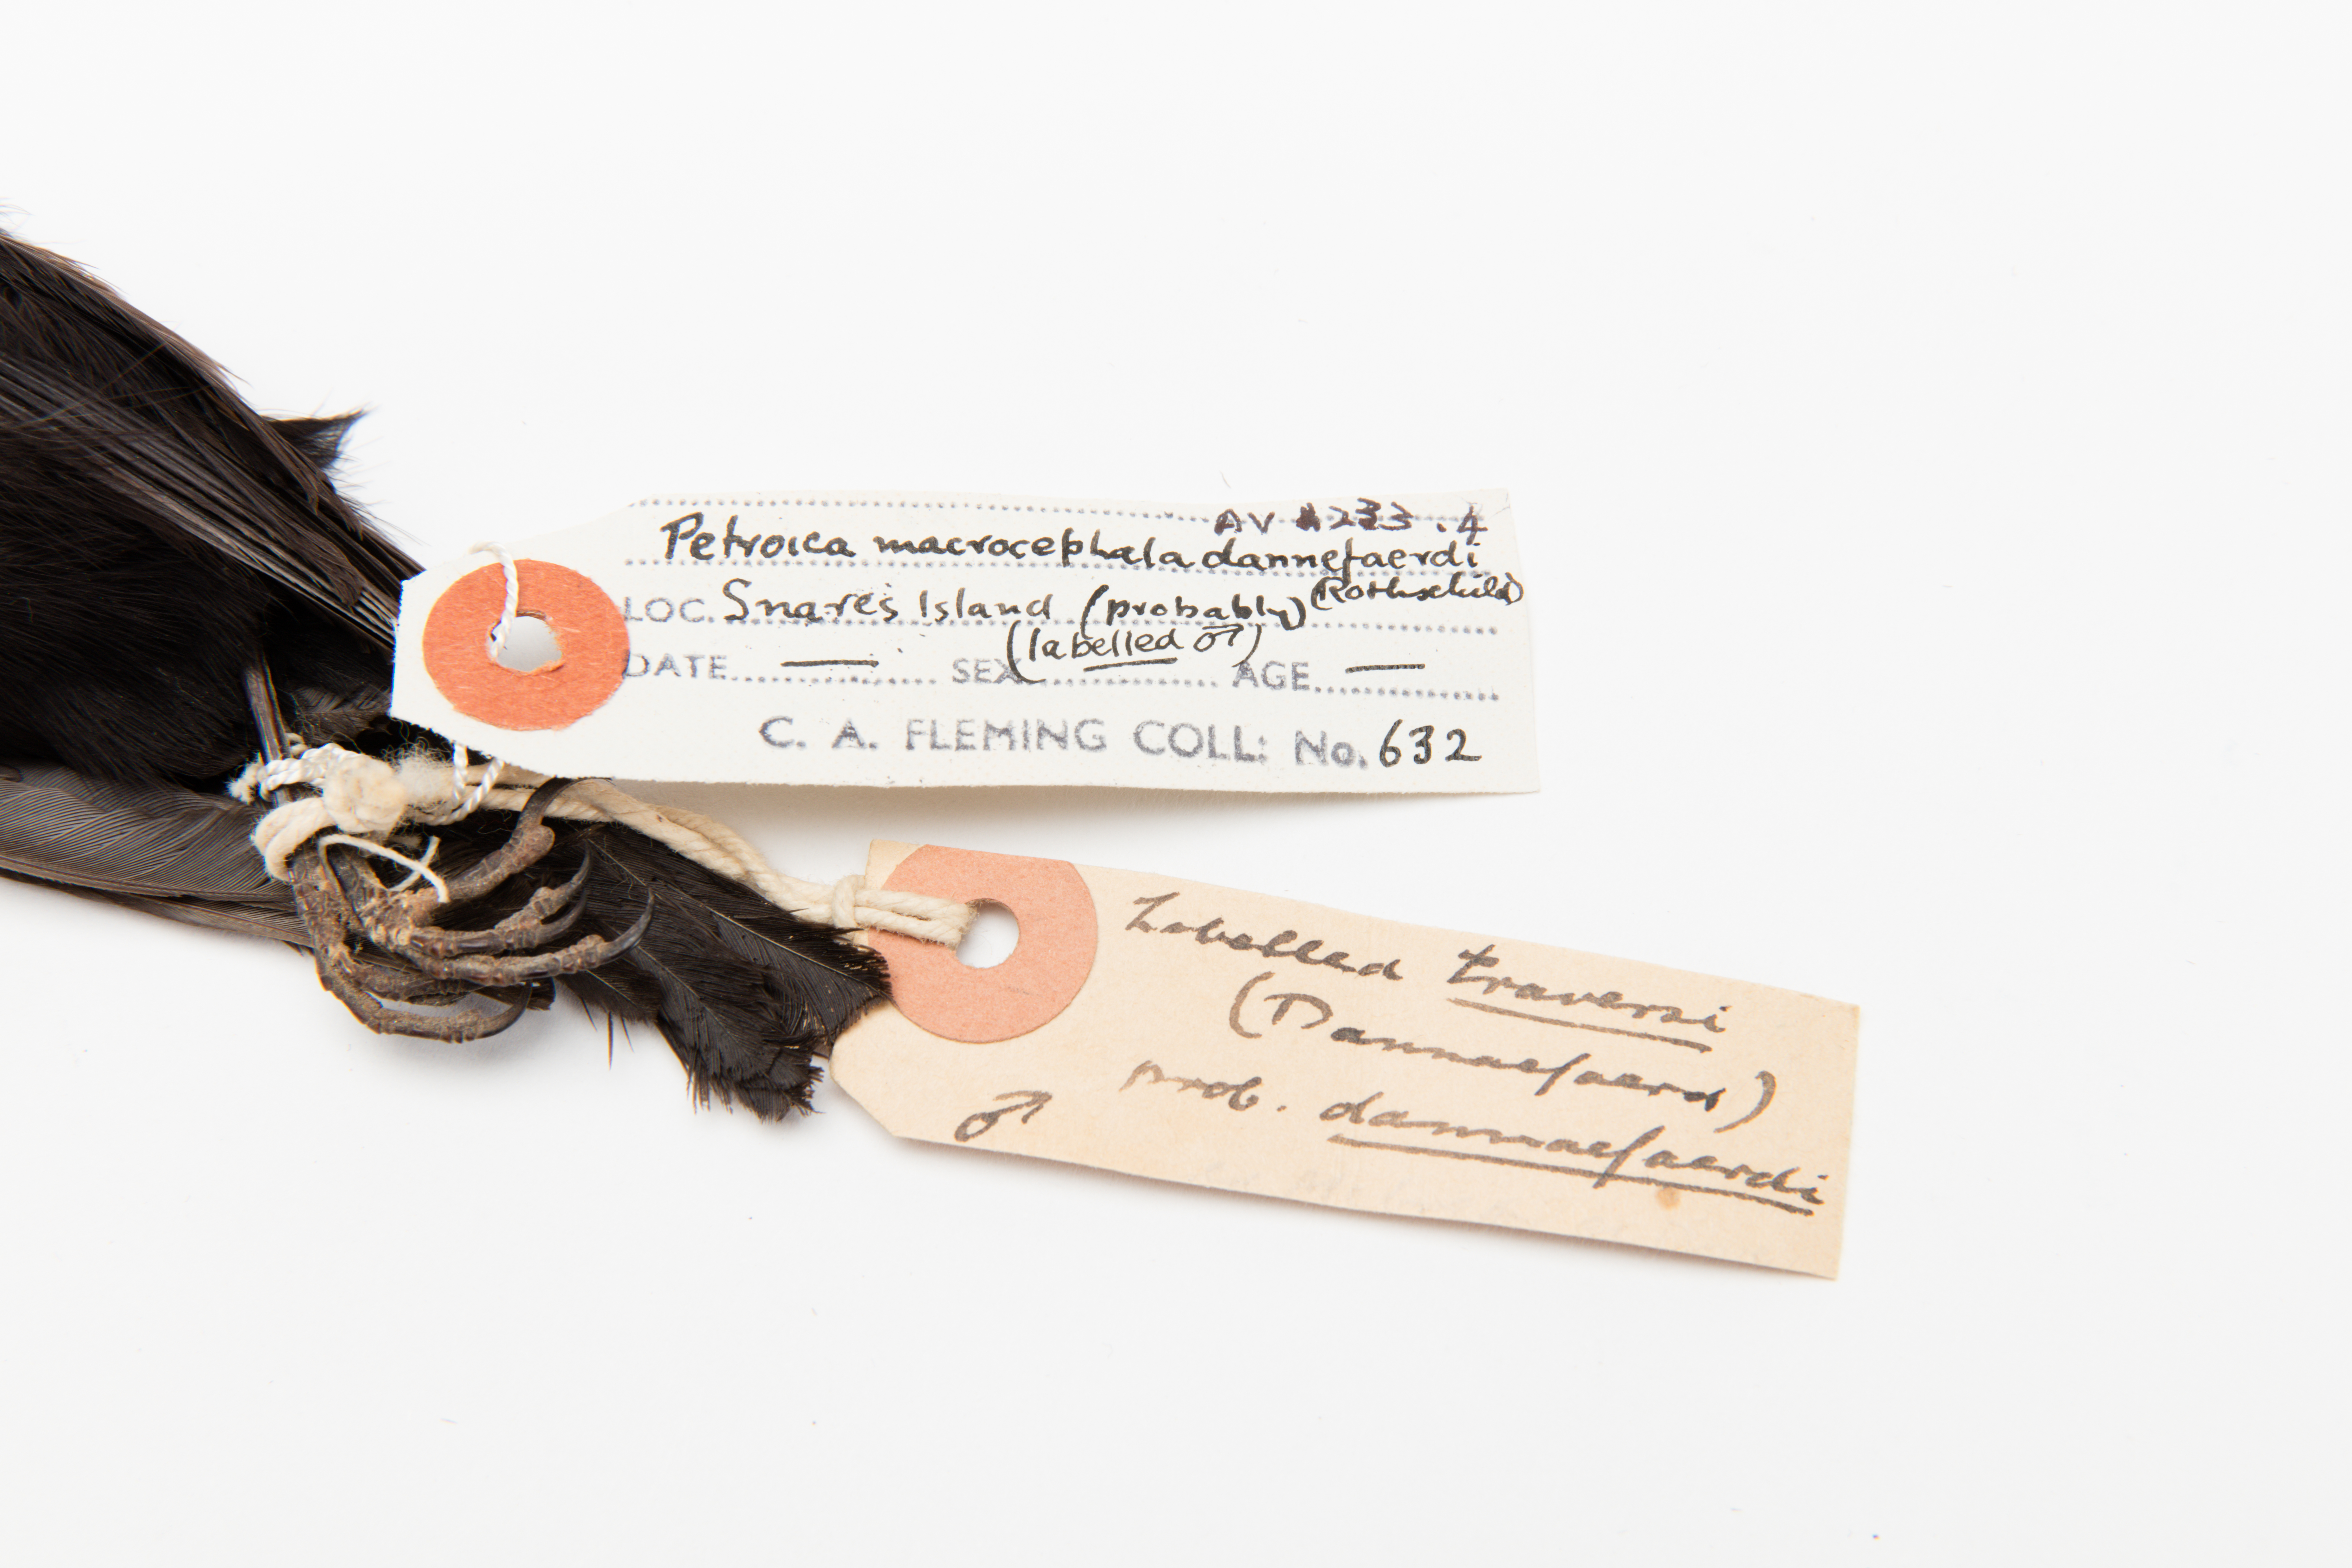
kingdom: Animalia
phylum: Chordata
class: Aves
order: Passeriformes
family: Petroicidae
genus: Petroica
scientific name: Petroica macrocephala
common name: Tomtit
